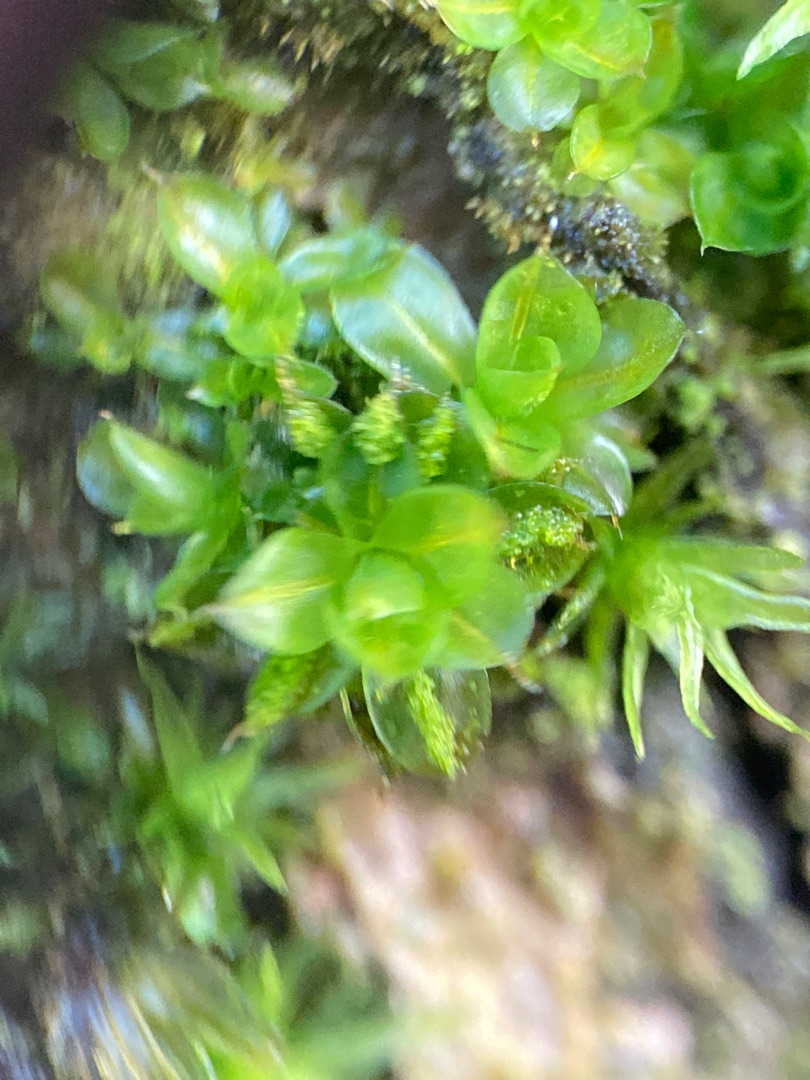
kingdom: Plantae
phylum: Bryophyta
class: Bryopsida
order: Pottiales
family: Pottiaceae
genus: Syntrichia
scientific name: Syntrichia papillosa
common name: Bark-hårstjerne
